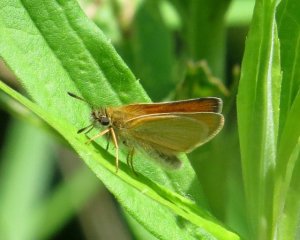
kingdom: Animalia
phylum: Arthropoda
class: Insecta
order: Lepidoptera
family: Hesperiidae
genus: Thymelicus
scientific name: Thymelicus lineola
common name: European Skipper
